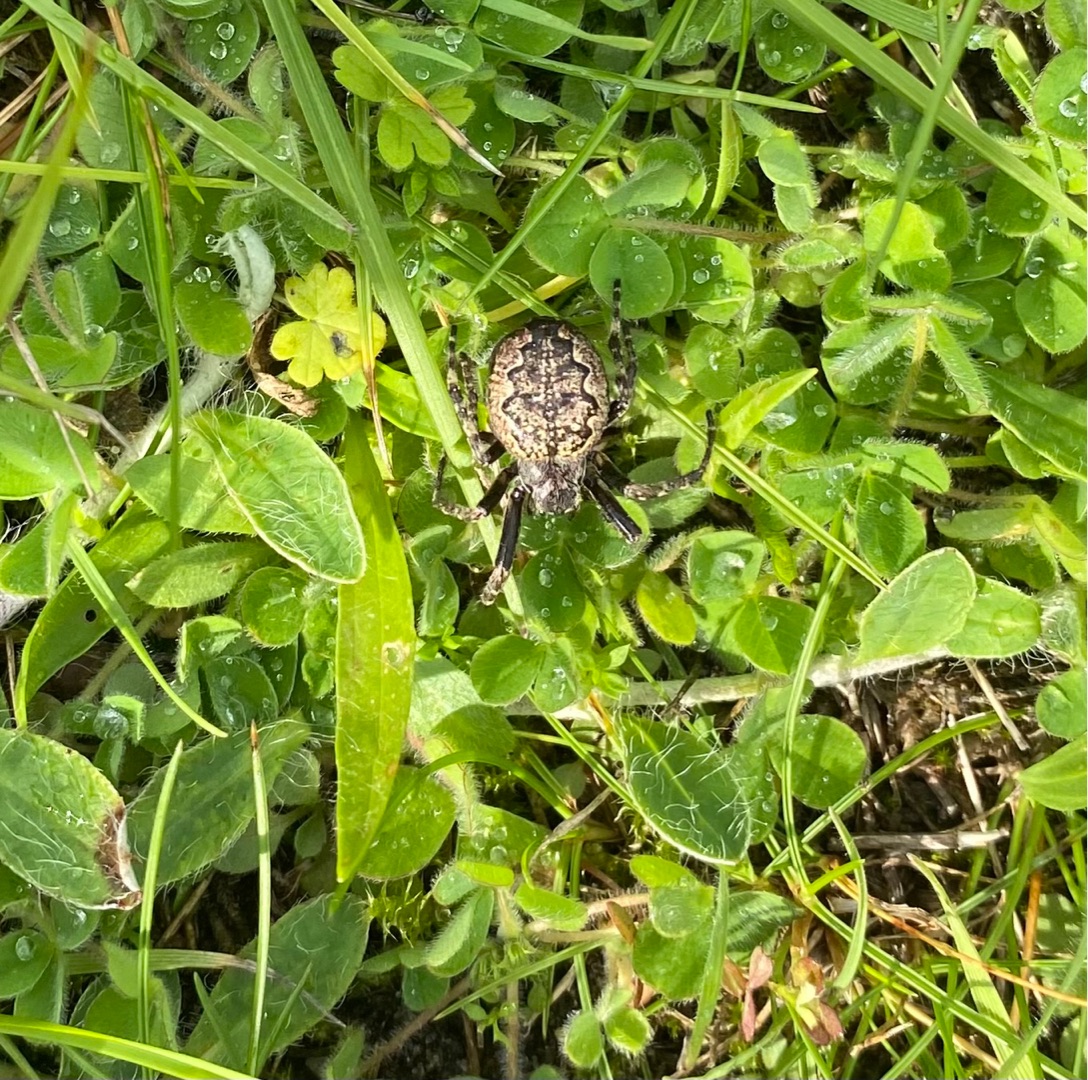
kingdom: Animalia
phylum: Arthropoda
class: Arachnida
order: Araneae
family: Araneidae
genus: Nuctenea
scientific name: Nuctenea umbratica
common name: Flad hjulspinder
